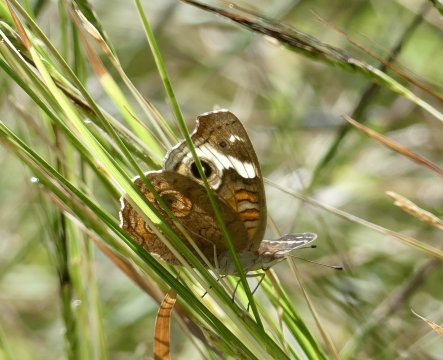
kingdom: Animalia
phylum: Arthropoda
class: Insecta
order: Lepidoptera
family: Nymphalidae
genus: Junonia
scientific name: Junonia coenia
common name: Common Buckeye
